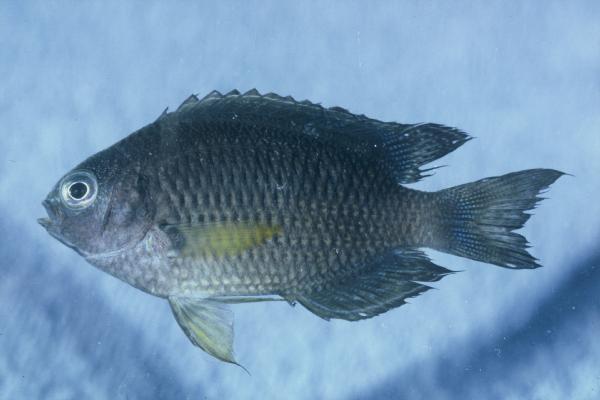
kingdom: Animalia
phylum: Chordata
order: Perciformes
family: Pomacentridae
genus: Pomacentrus
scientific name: Pomacentrus indicus
